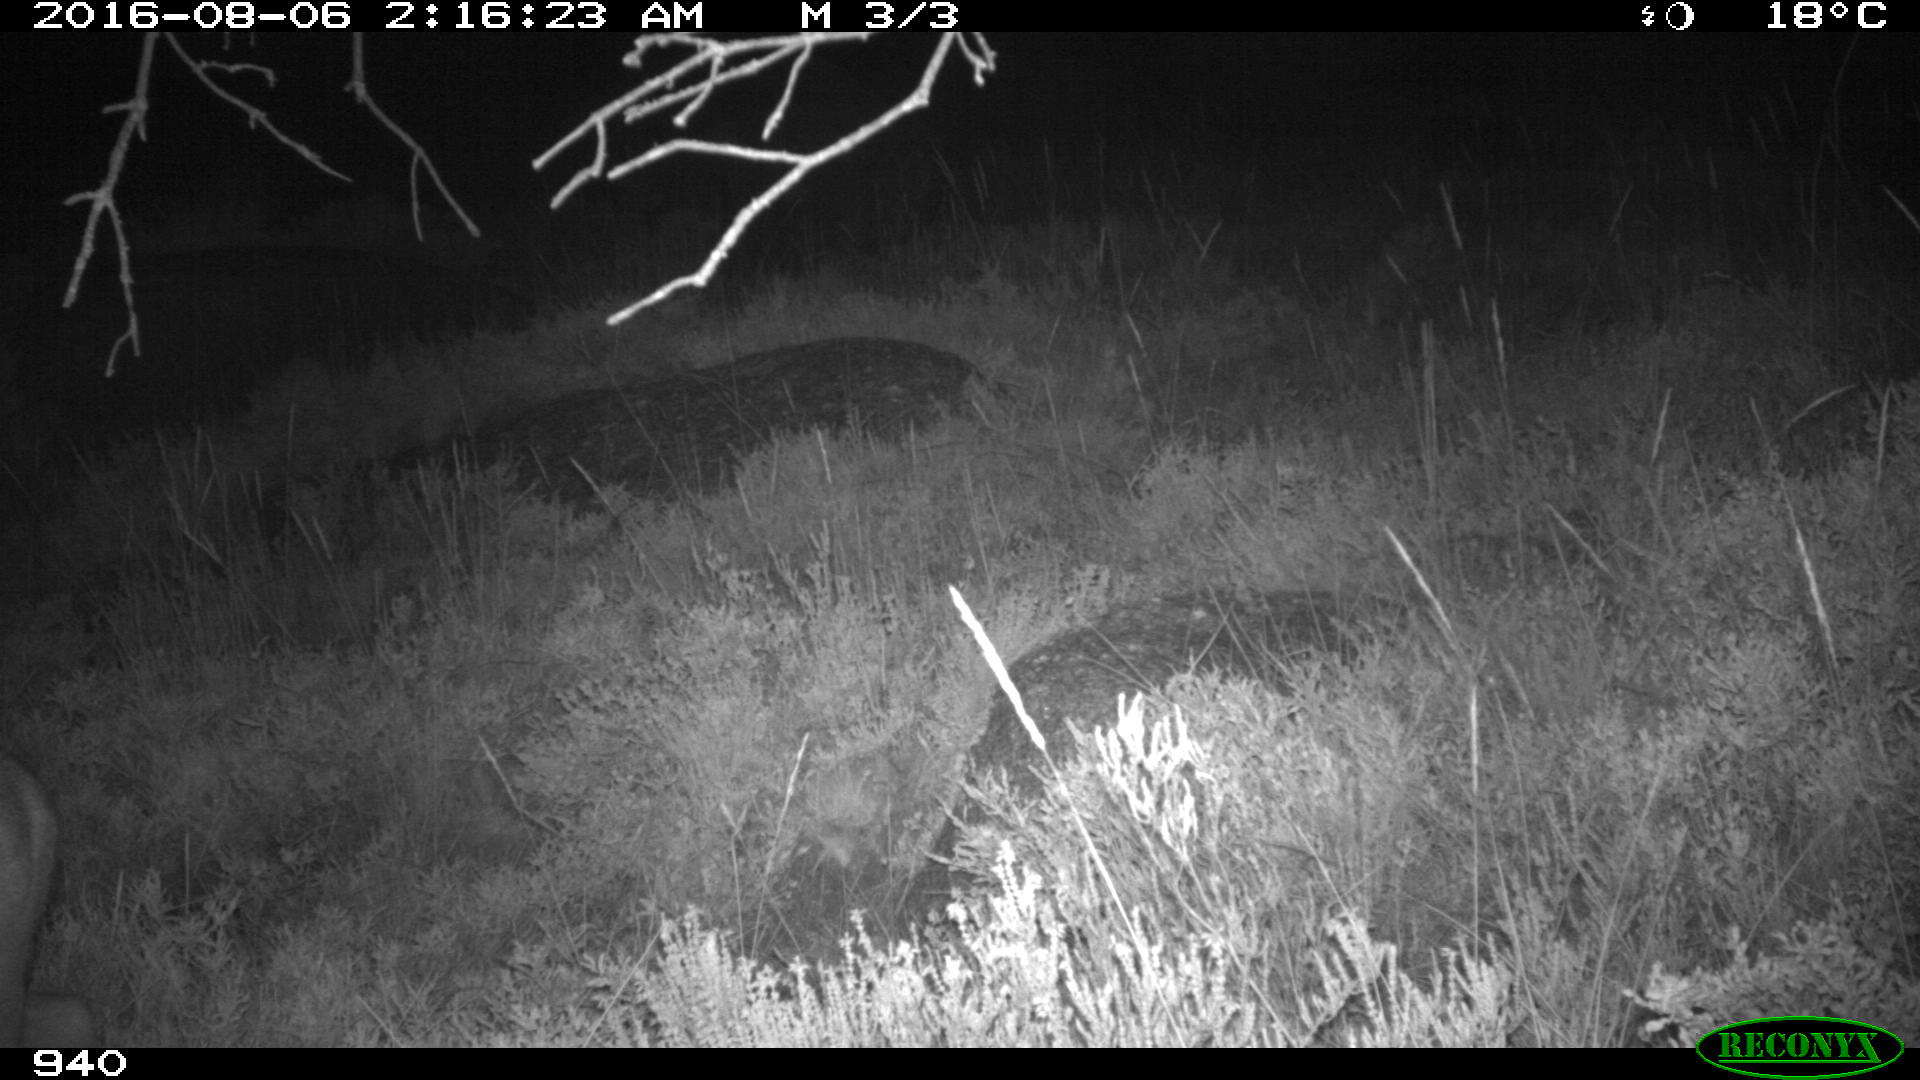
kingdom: Animalia
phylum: Chordata
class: Mammalia
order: Artiodactyla
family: Cervidae
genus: Capreolus
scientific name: Capreolus capreolus
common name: Western roe deer
